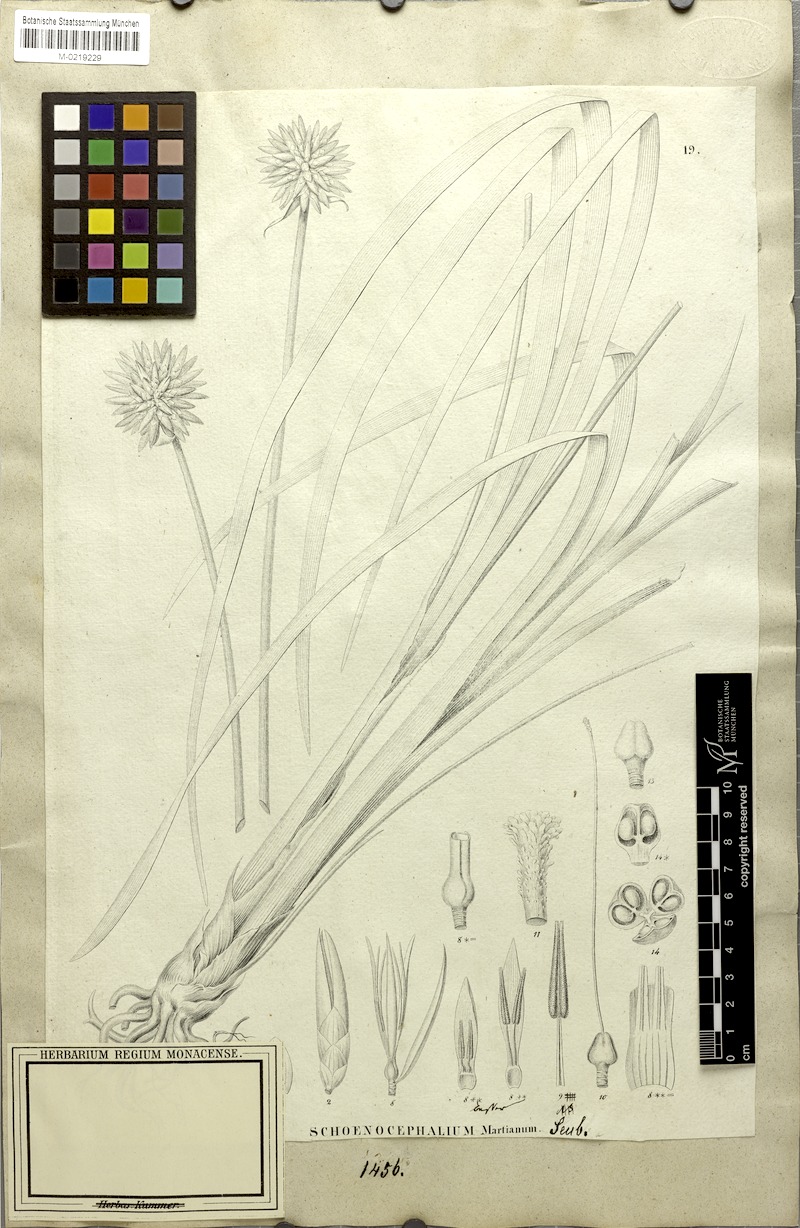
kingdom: Plantae
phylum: Tracheophyta
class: Liliopsida
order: Poales
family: Rapateaceae
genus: Schoenocephalium
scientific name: Schoenocephalium martianum
